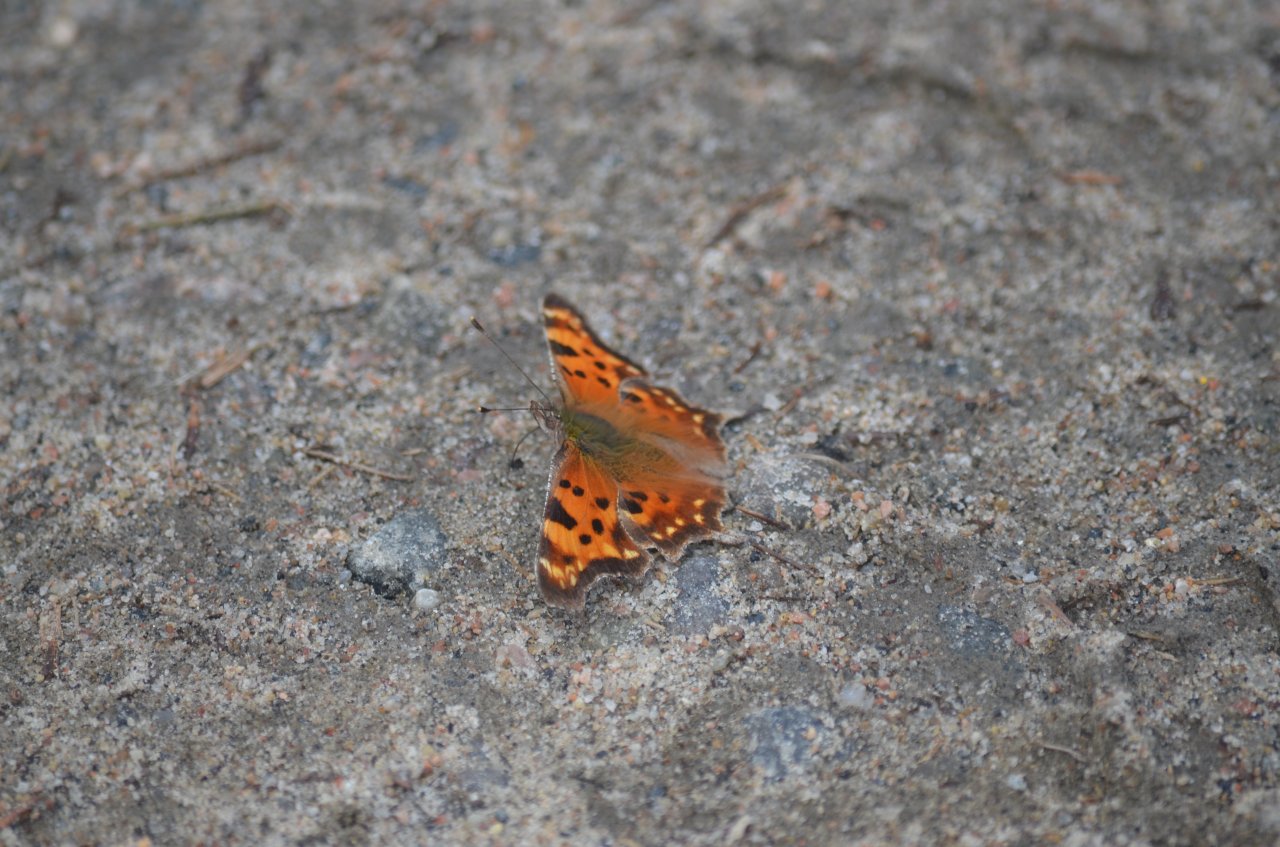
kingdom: Animalia
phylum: Arthropoda
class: Insecta
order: Lepidoptera
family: Nymphalidae
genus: Polygonia
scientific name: Polygonia faunus
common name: Green Comma
